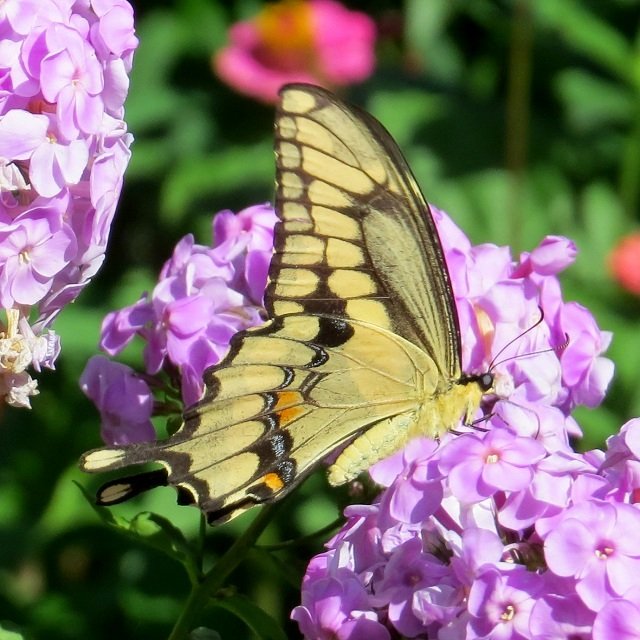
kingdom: Animalia
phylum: Arthropoda
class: Insecta
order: Lepidoptera
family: Papilionidae
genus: Papilio
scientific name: Papilio cresphontes
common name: Eastern Giant Swallowtail
